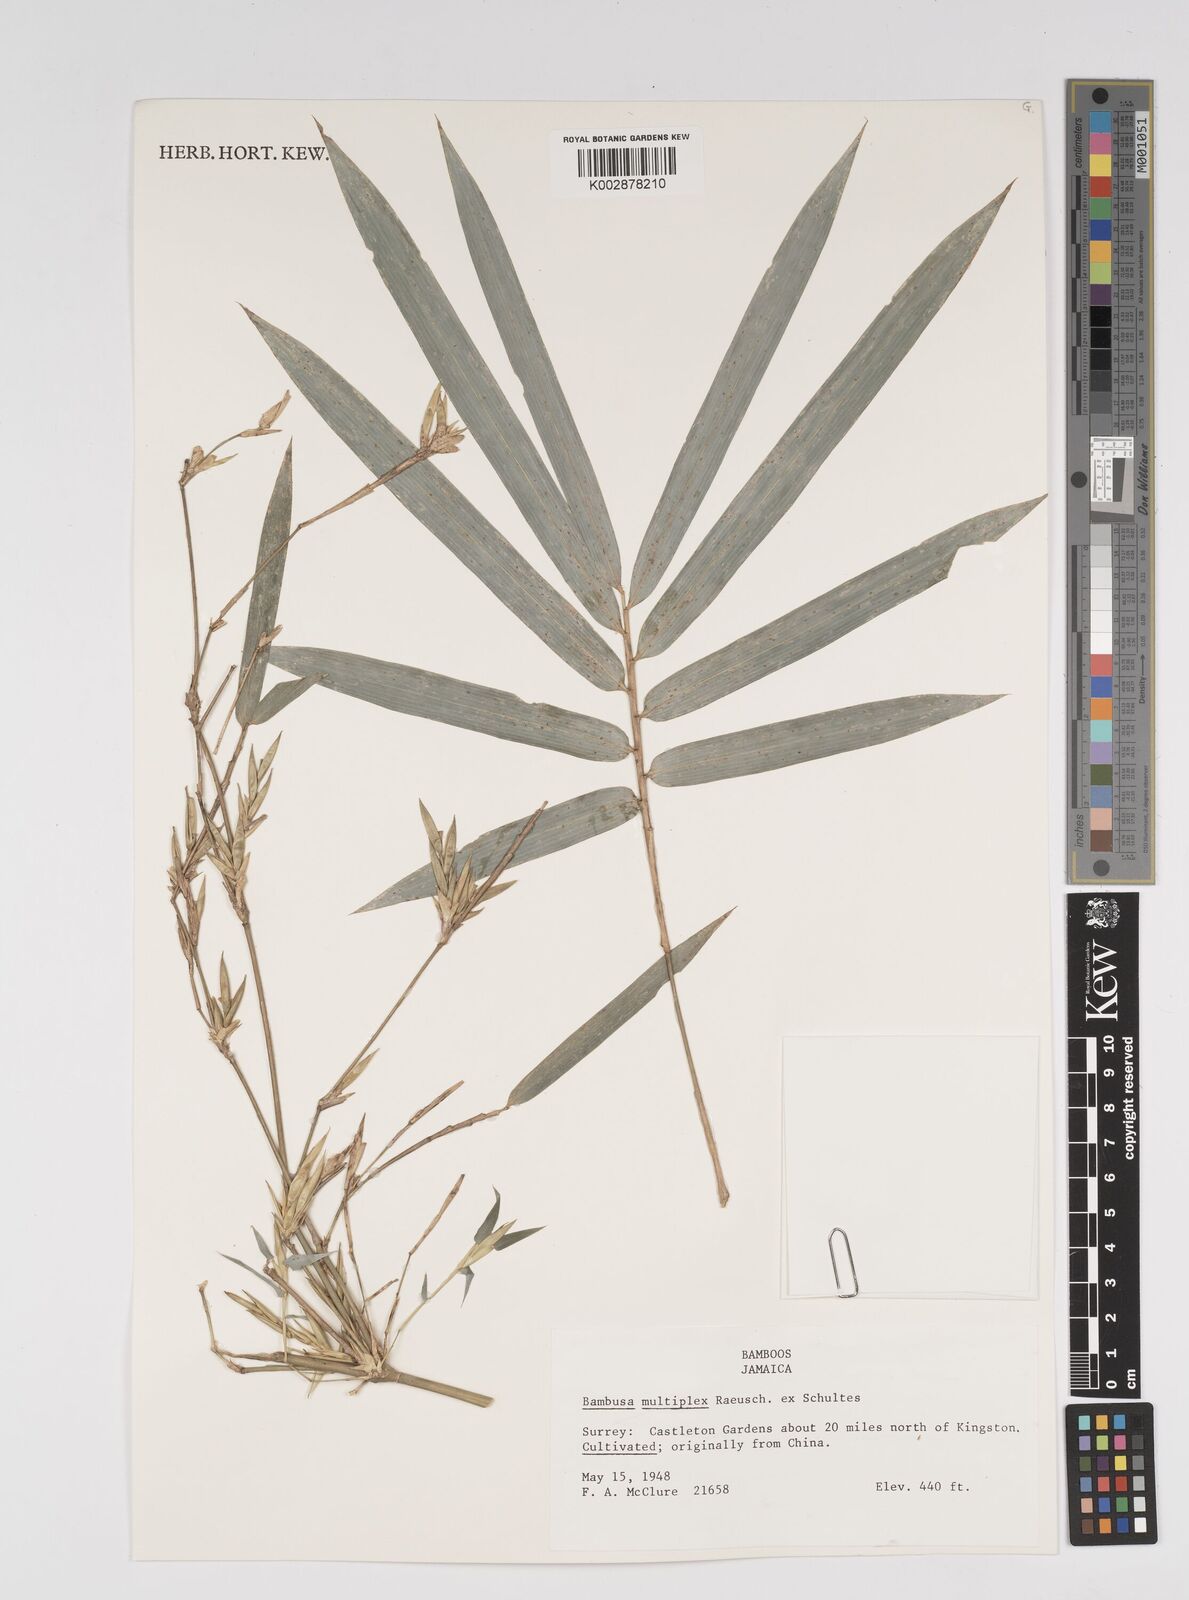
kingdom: Plantae
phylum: Tracheophyta
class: Liliopsida
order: Poales
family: Poaceae
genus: Bambusa
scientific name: Bambusa multiplex
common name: Hedge bamboo
